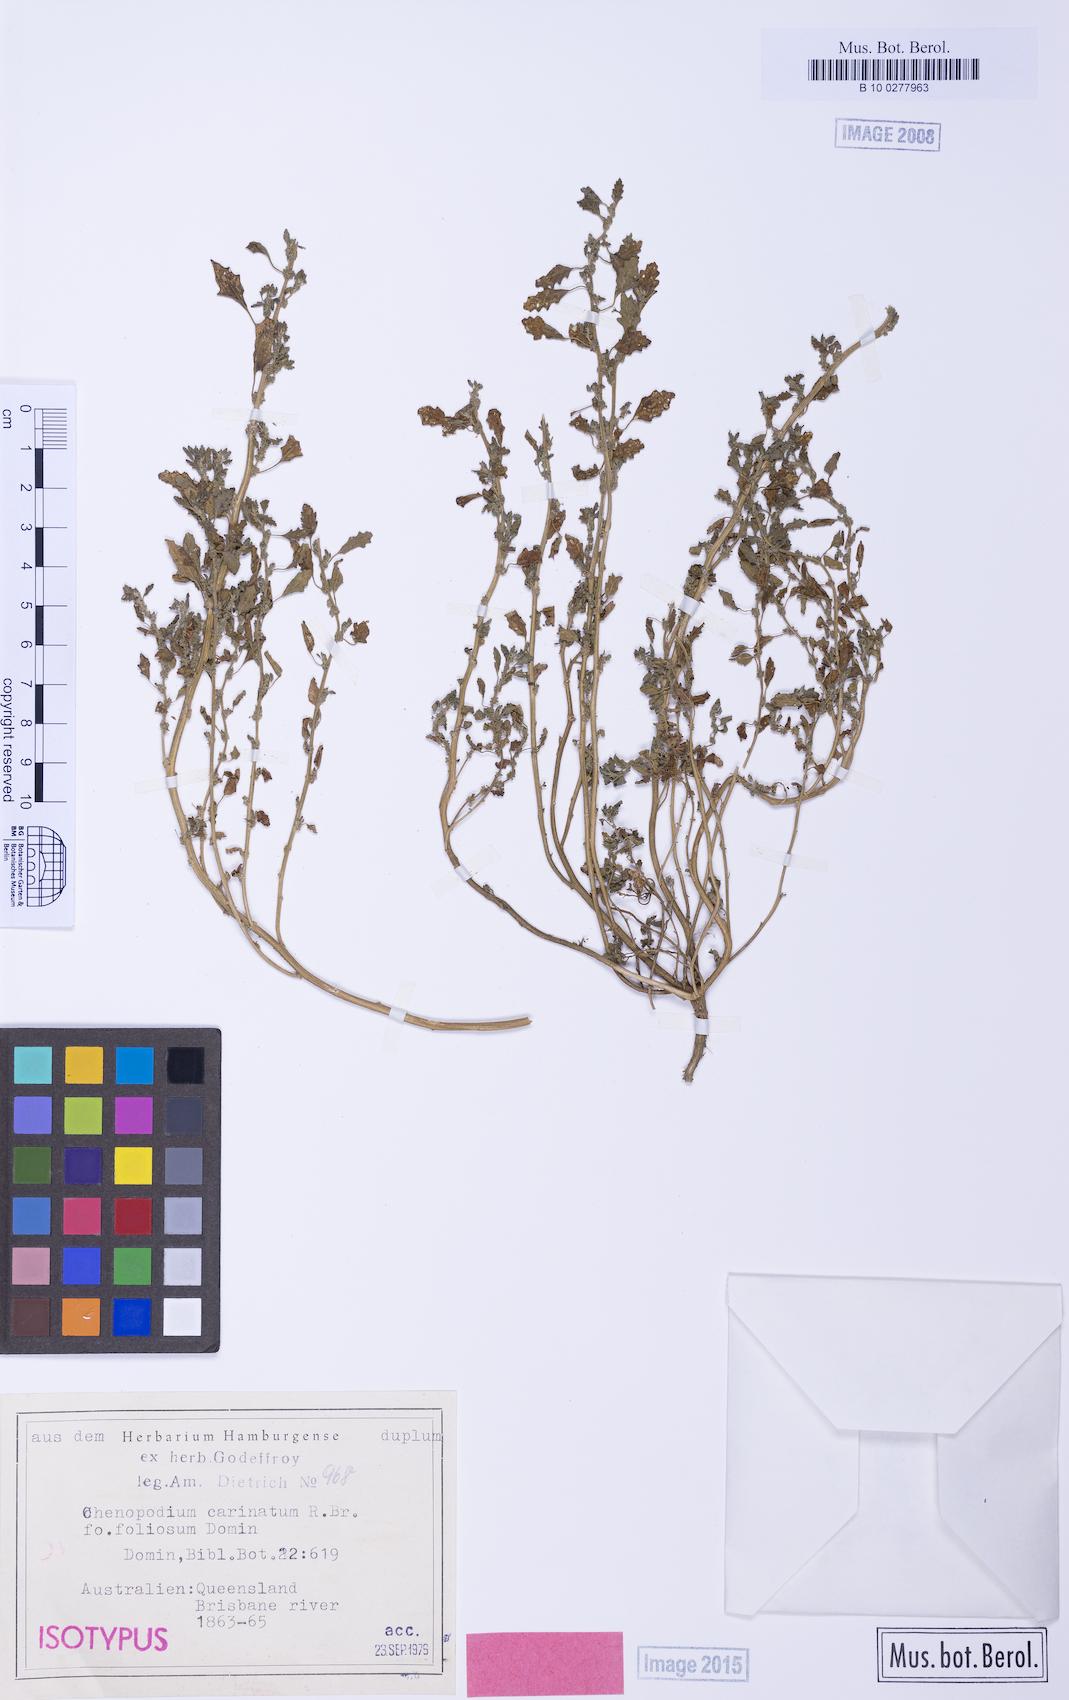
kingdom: Plantae
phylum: Tracheophyta
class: Magnoliopsida
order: Caryophyllales
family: Amaranthaceae
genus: Dysphania
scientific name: Dysphania carinata
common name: Keeled wormseed
